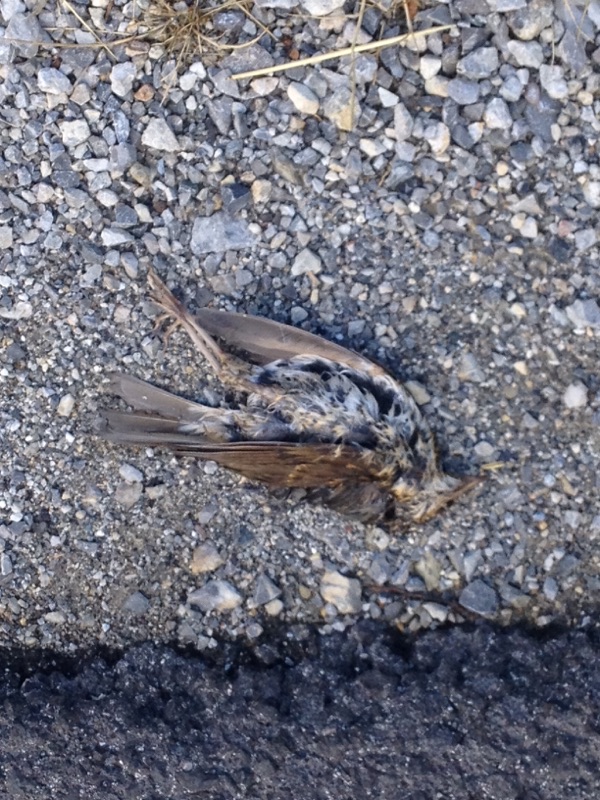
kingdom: Animalia
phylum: Chordata
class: Aves
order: Passeriformes
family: Turdidae
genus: Turdus
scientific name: Turdus philomelos
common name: Song thrush
